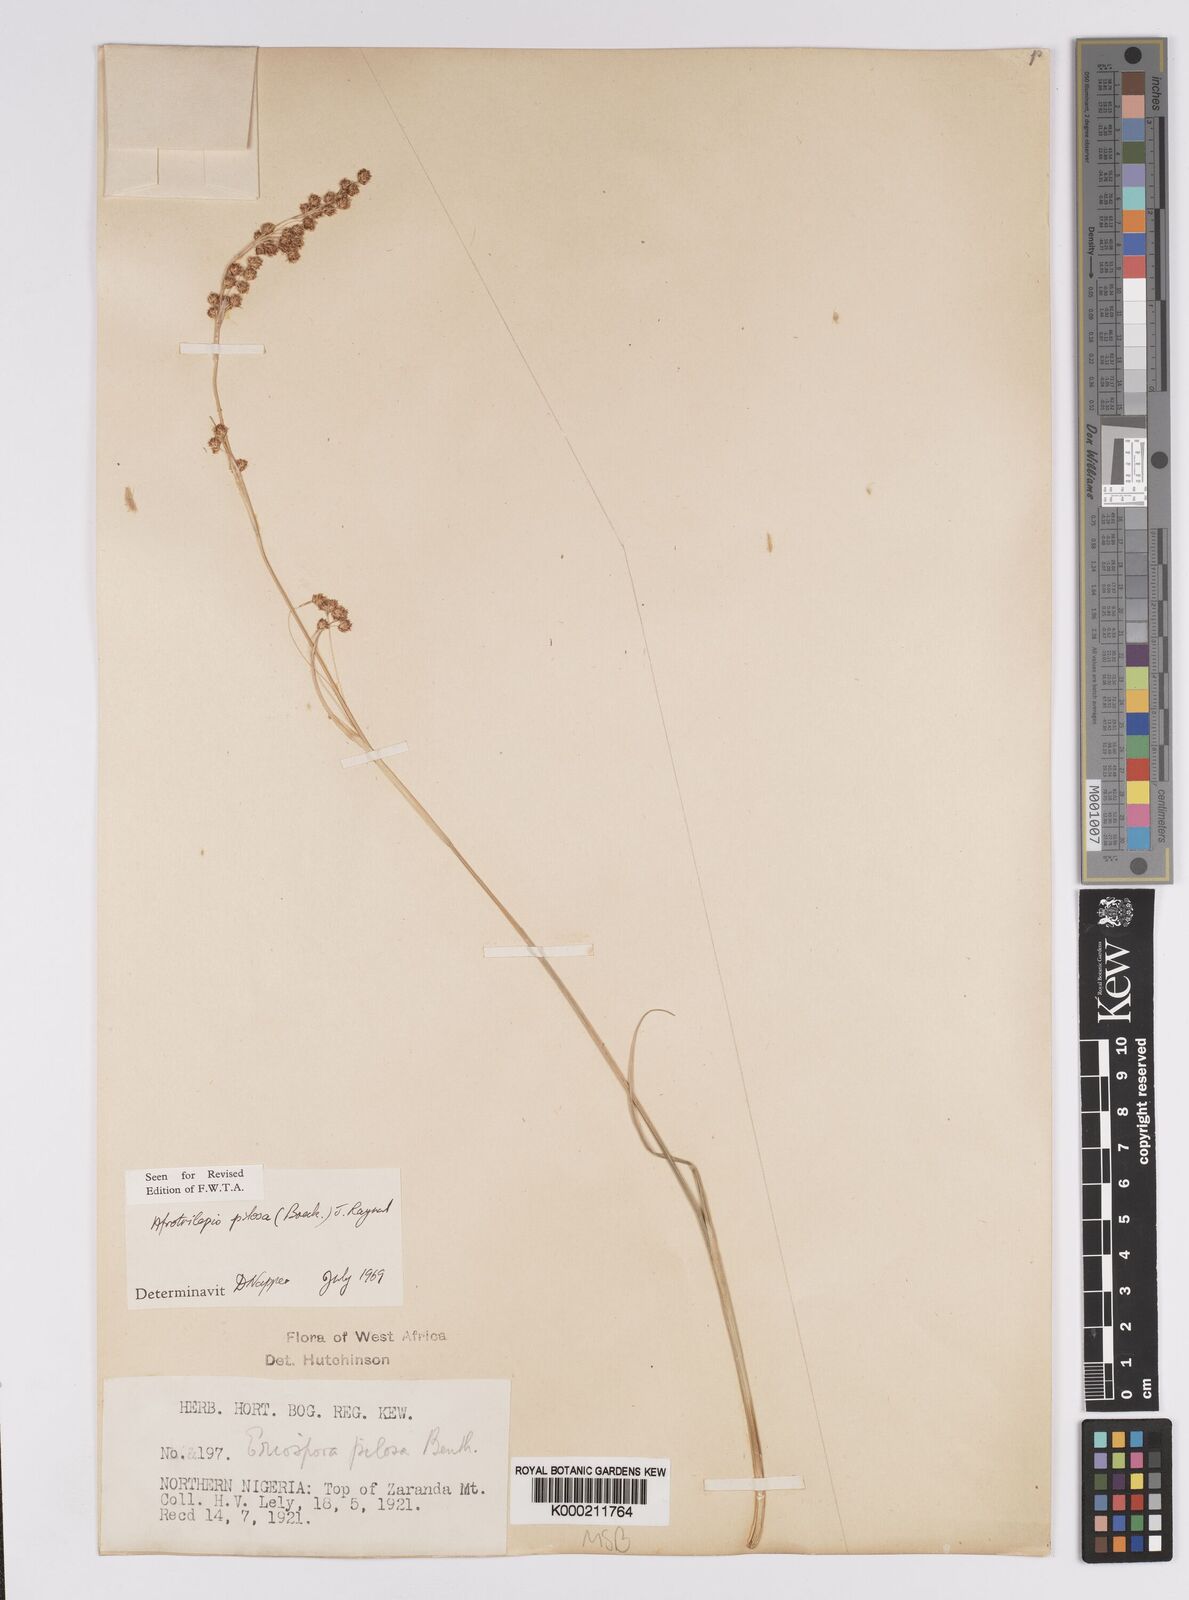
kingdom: Plantae
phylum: Tracheophyta
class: Liliopsida
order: Poales
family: Cyperaceae
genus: Afrotrilepis
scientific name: Afrotrilepis pilosa
